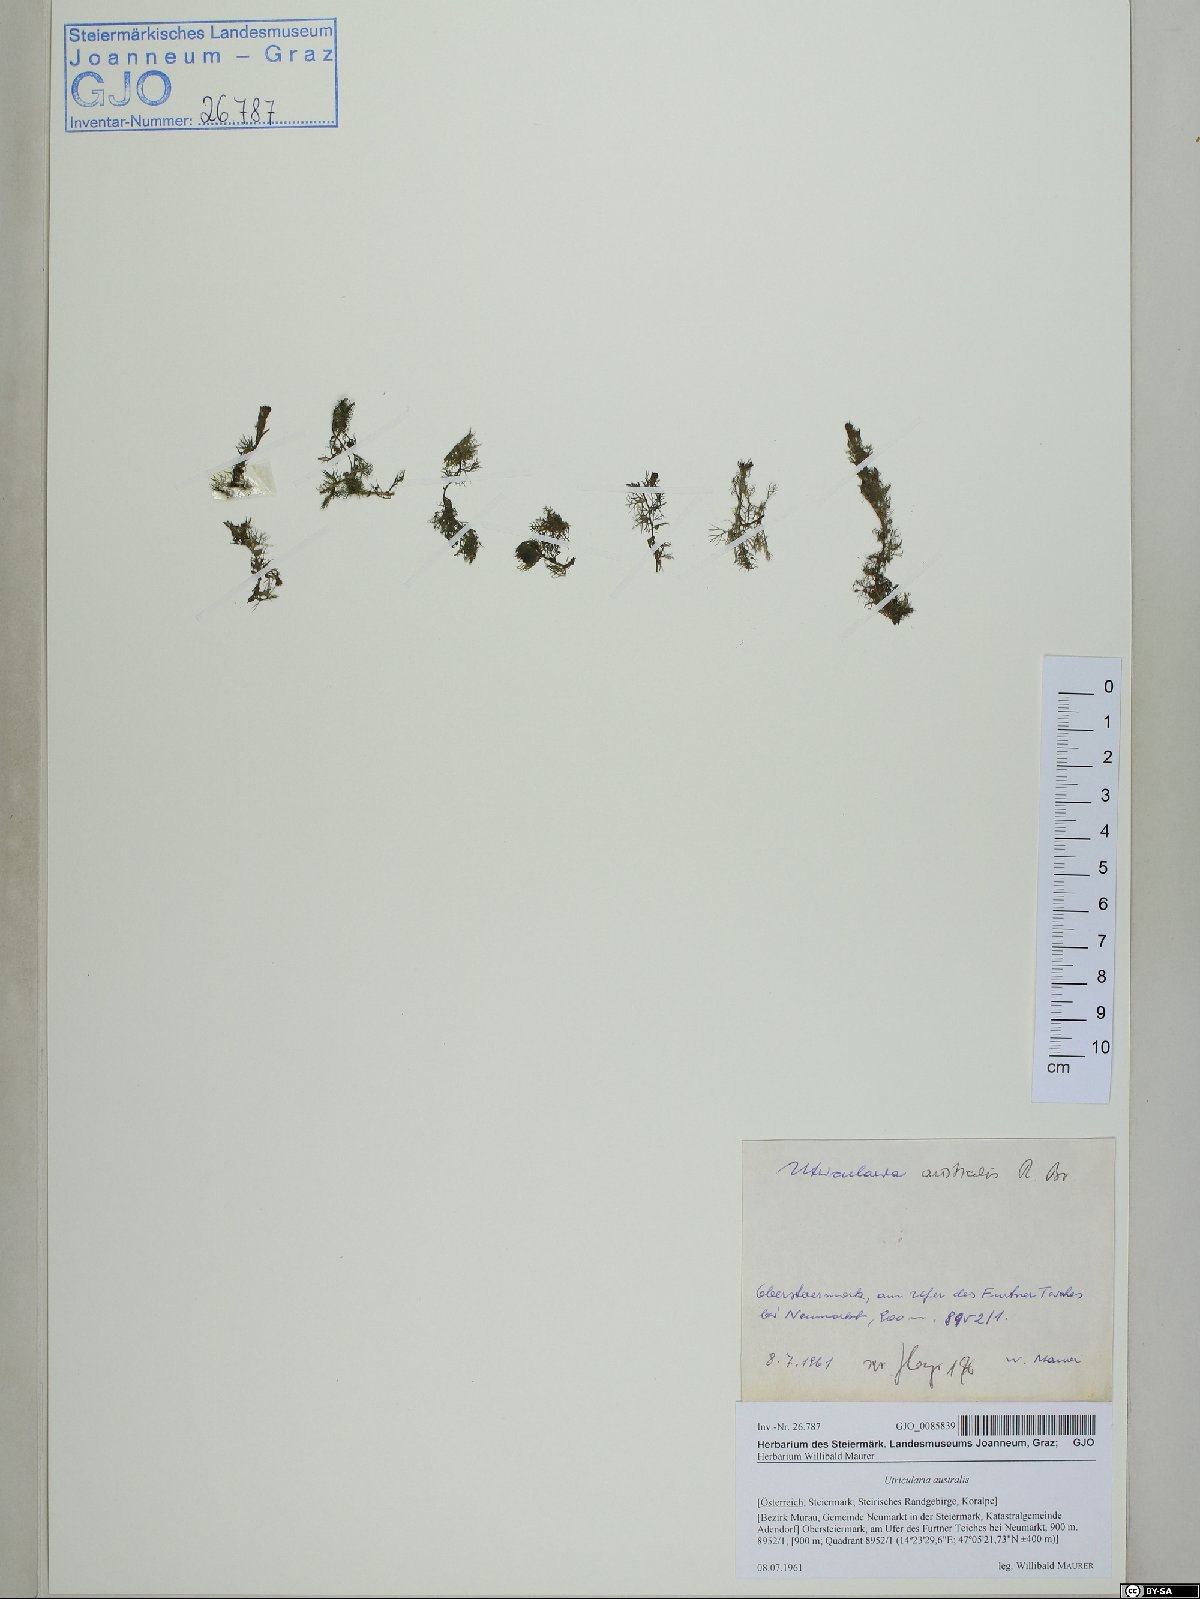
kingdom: Plantae
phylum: Tracheophyta
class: Magnoliopsida
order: Lamiales
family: Lentibulariaceae
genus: Utricularia
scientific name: Utricularia australis
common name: Bladderwort
